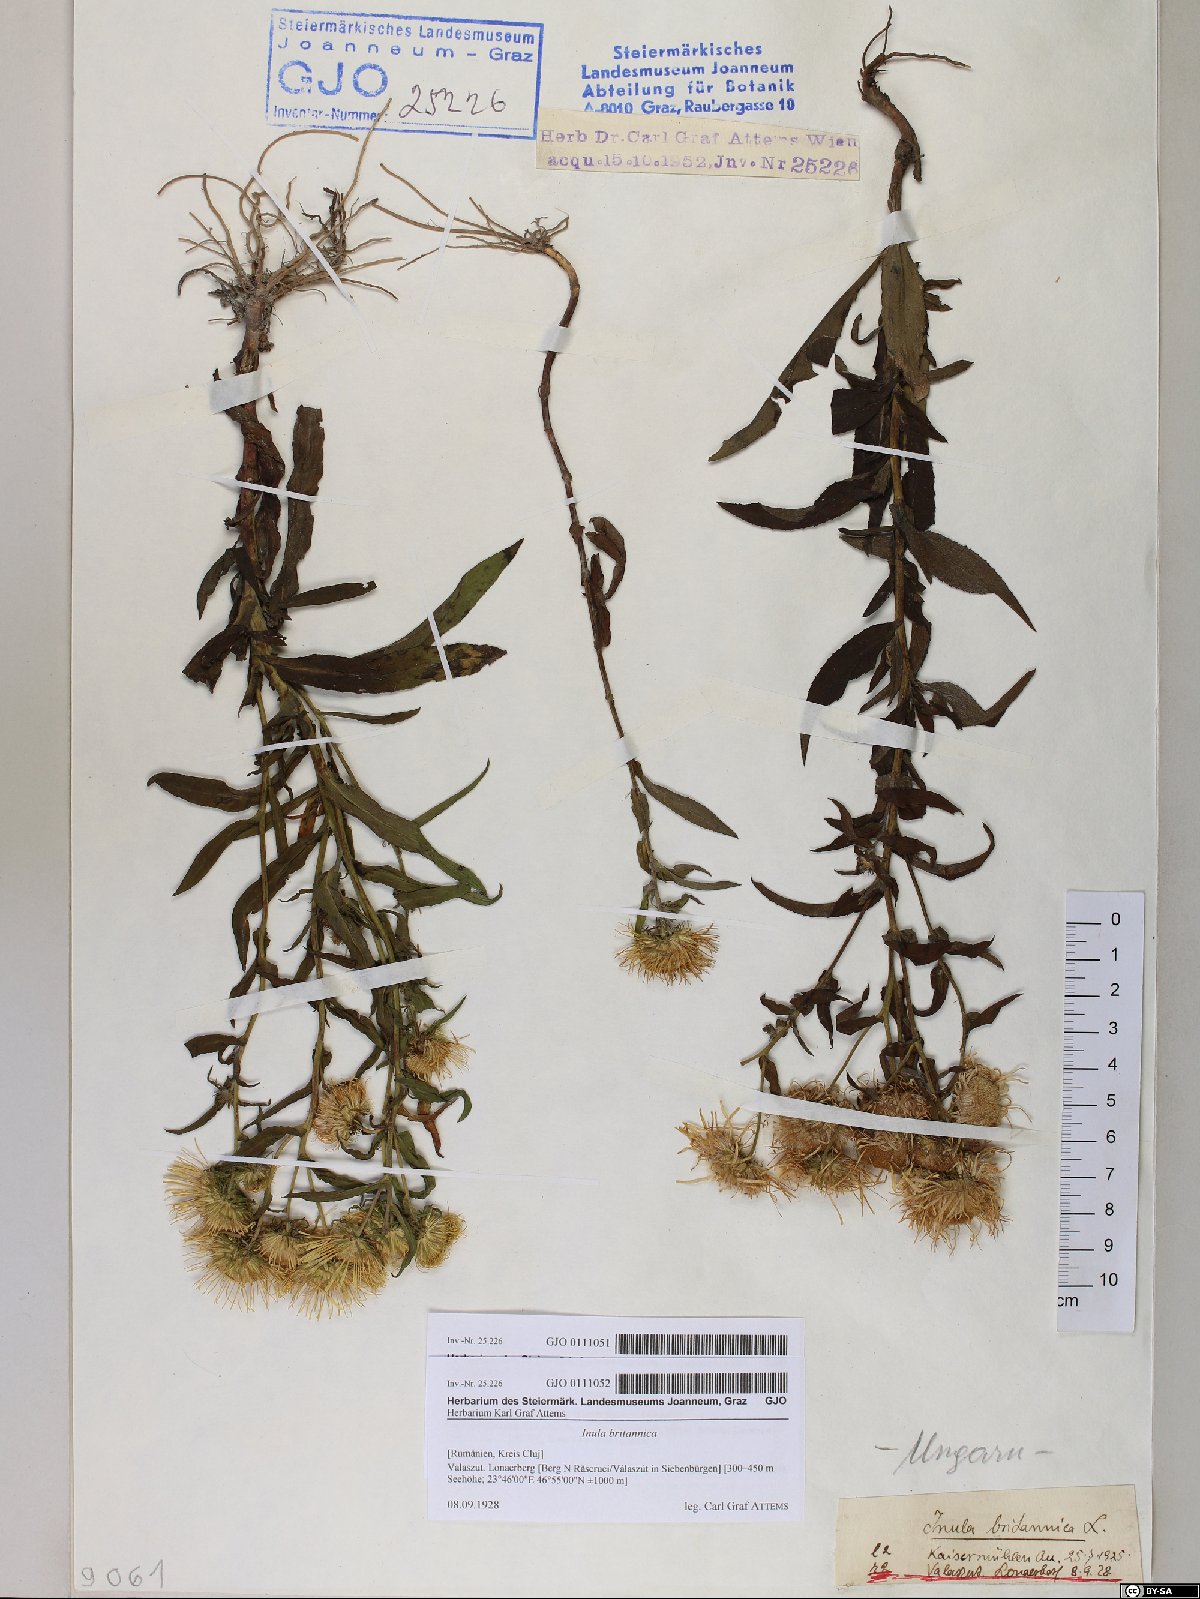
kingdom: Plantae
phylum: Tracheophyta
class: Magnoliopsida
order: Asterales
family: Asteraceae
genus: Pentanema
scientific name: Pentanema britannicum
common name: British elecampane
